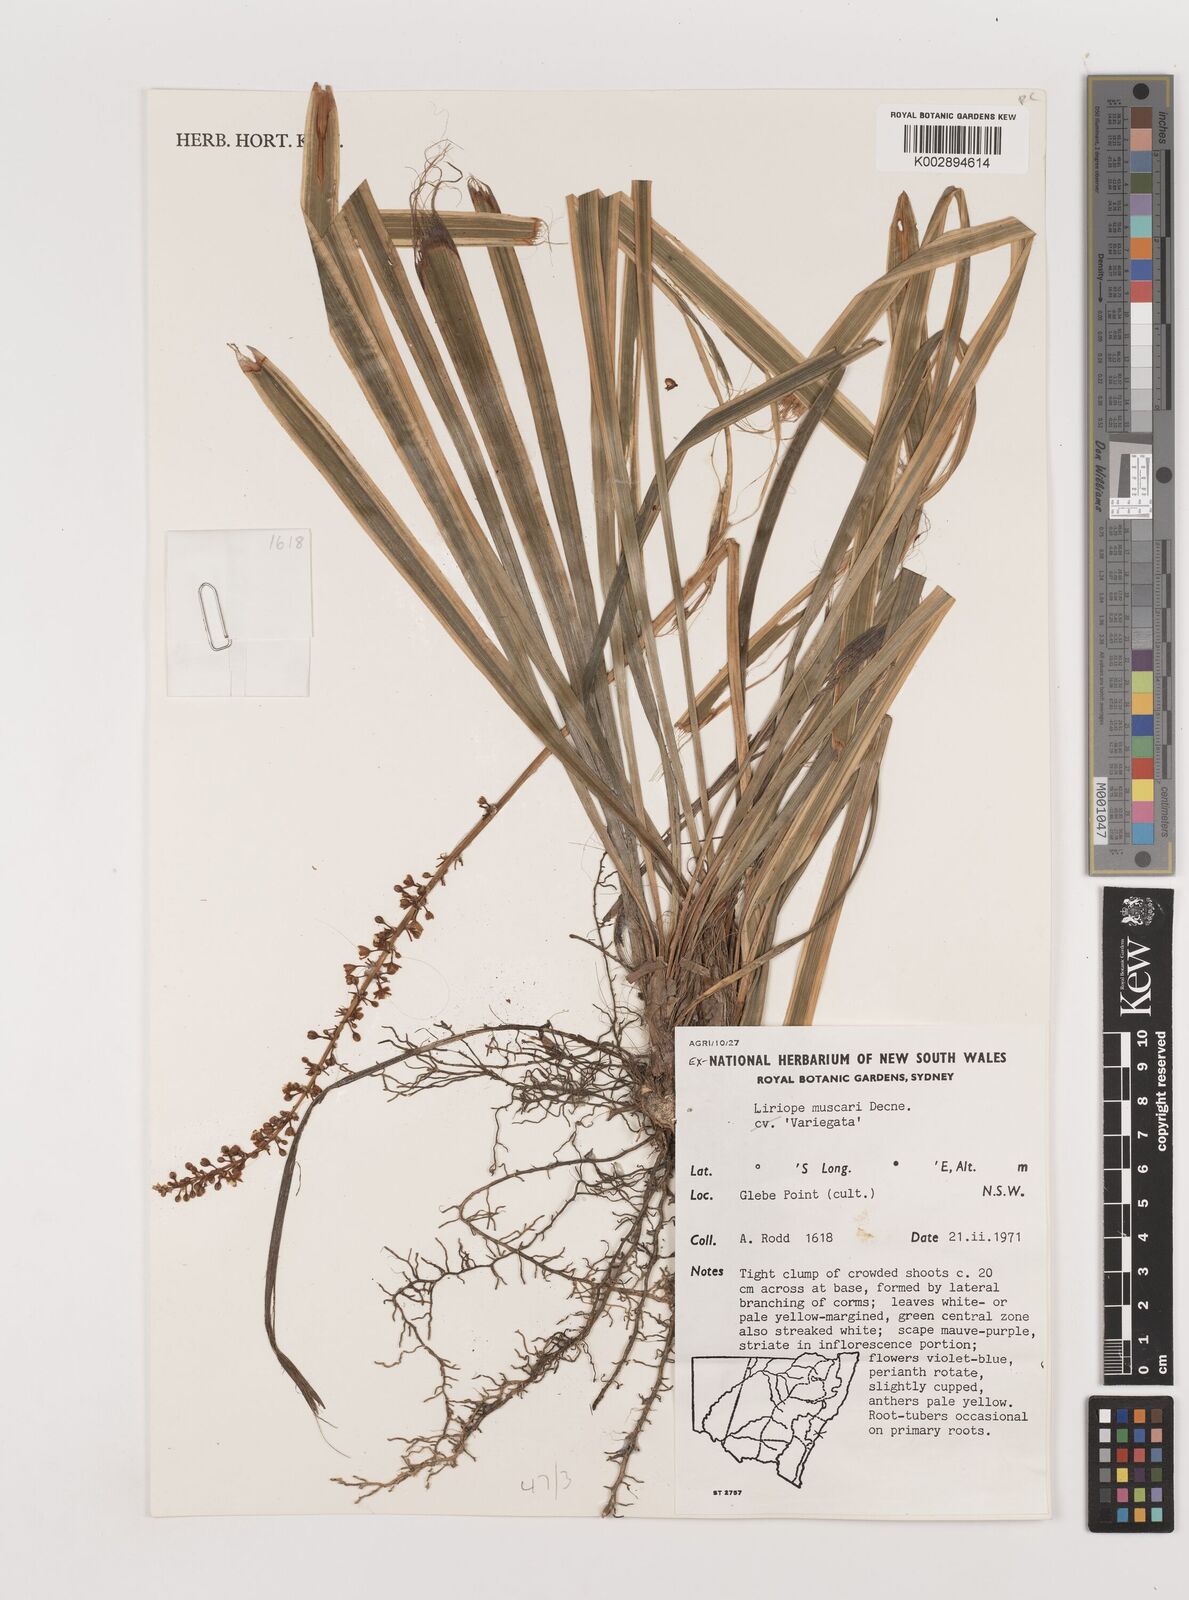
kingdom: Plantae
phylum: Tracheophyta
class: Liliopsida
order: Asparagales
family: Asparagaceae
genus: Liriope
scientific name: Liriope muscari
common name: Big blue lilyturf
